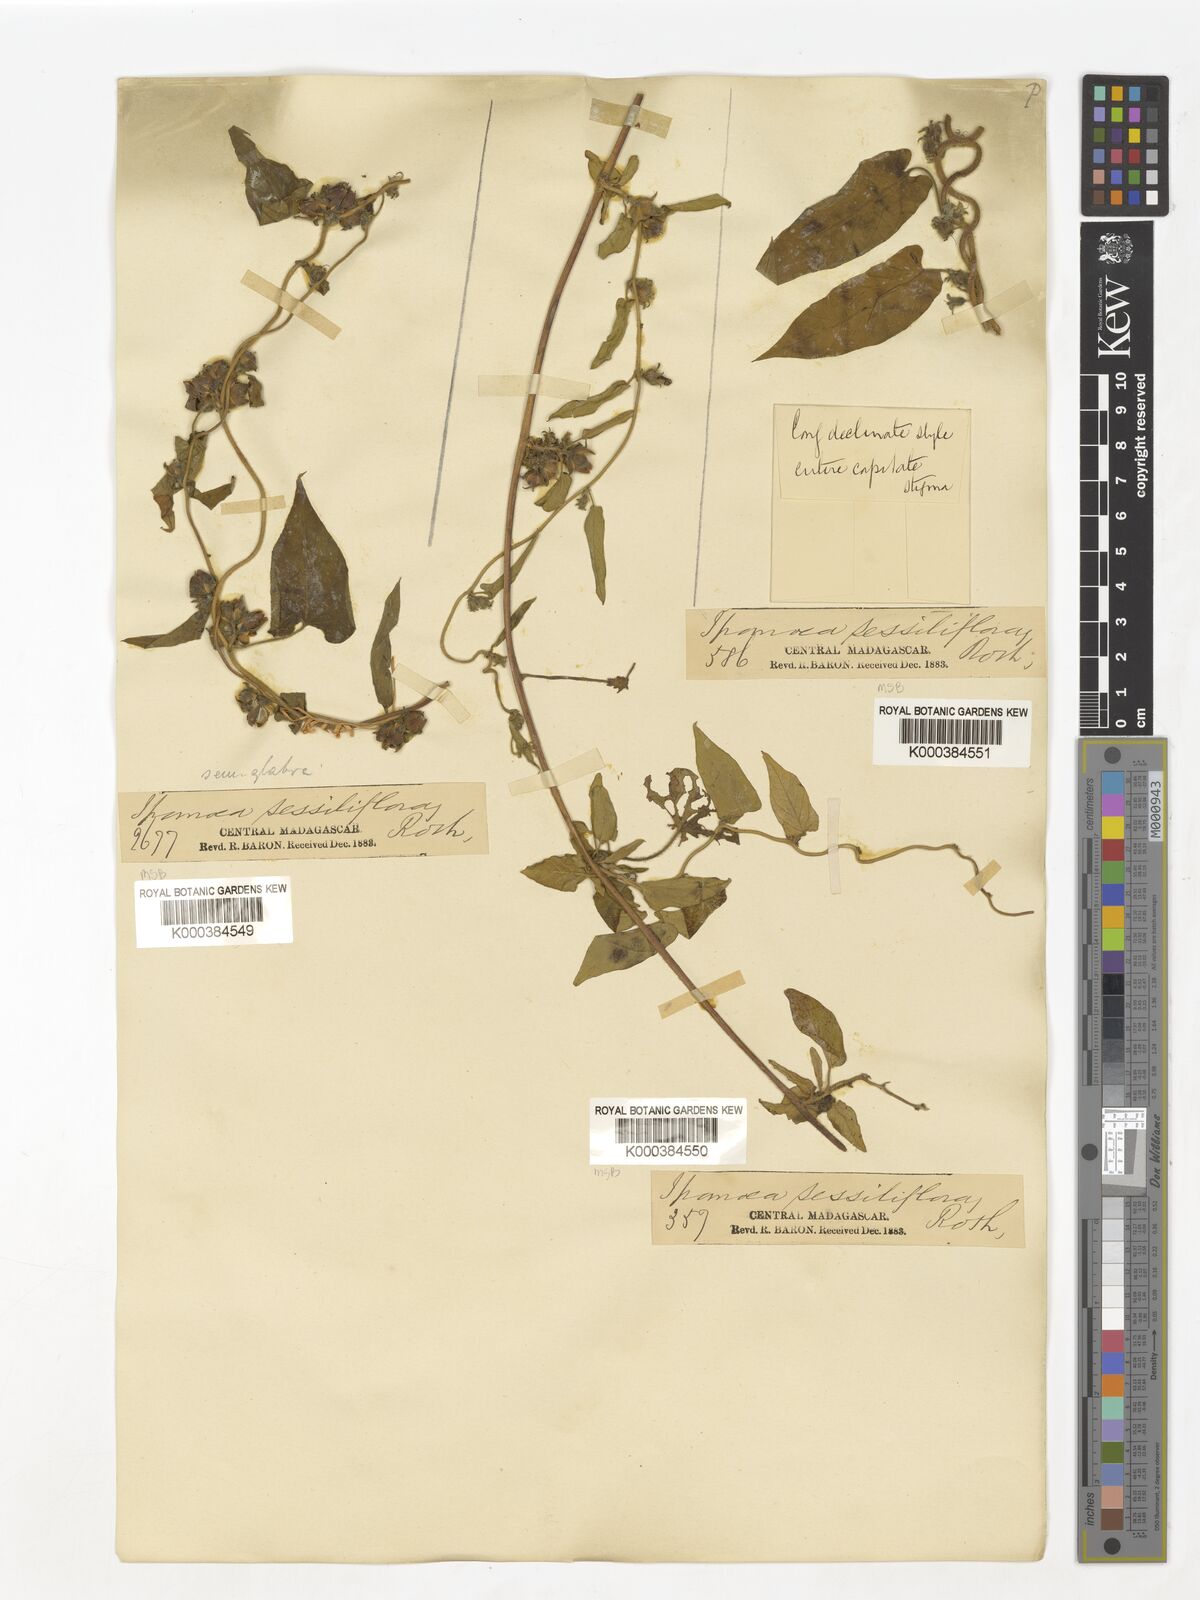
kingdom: Plantae
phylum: Tracheophyta
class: Magnoliopsida
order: Solanales
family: Convolvulaceae
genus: Ipomoea
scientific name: Ipomoea eriocarpa
